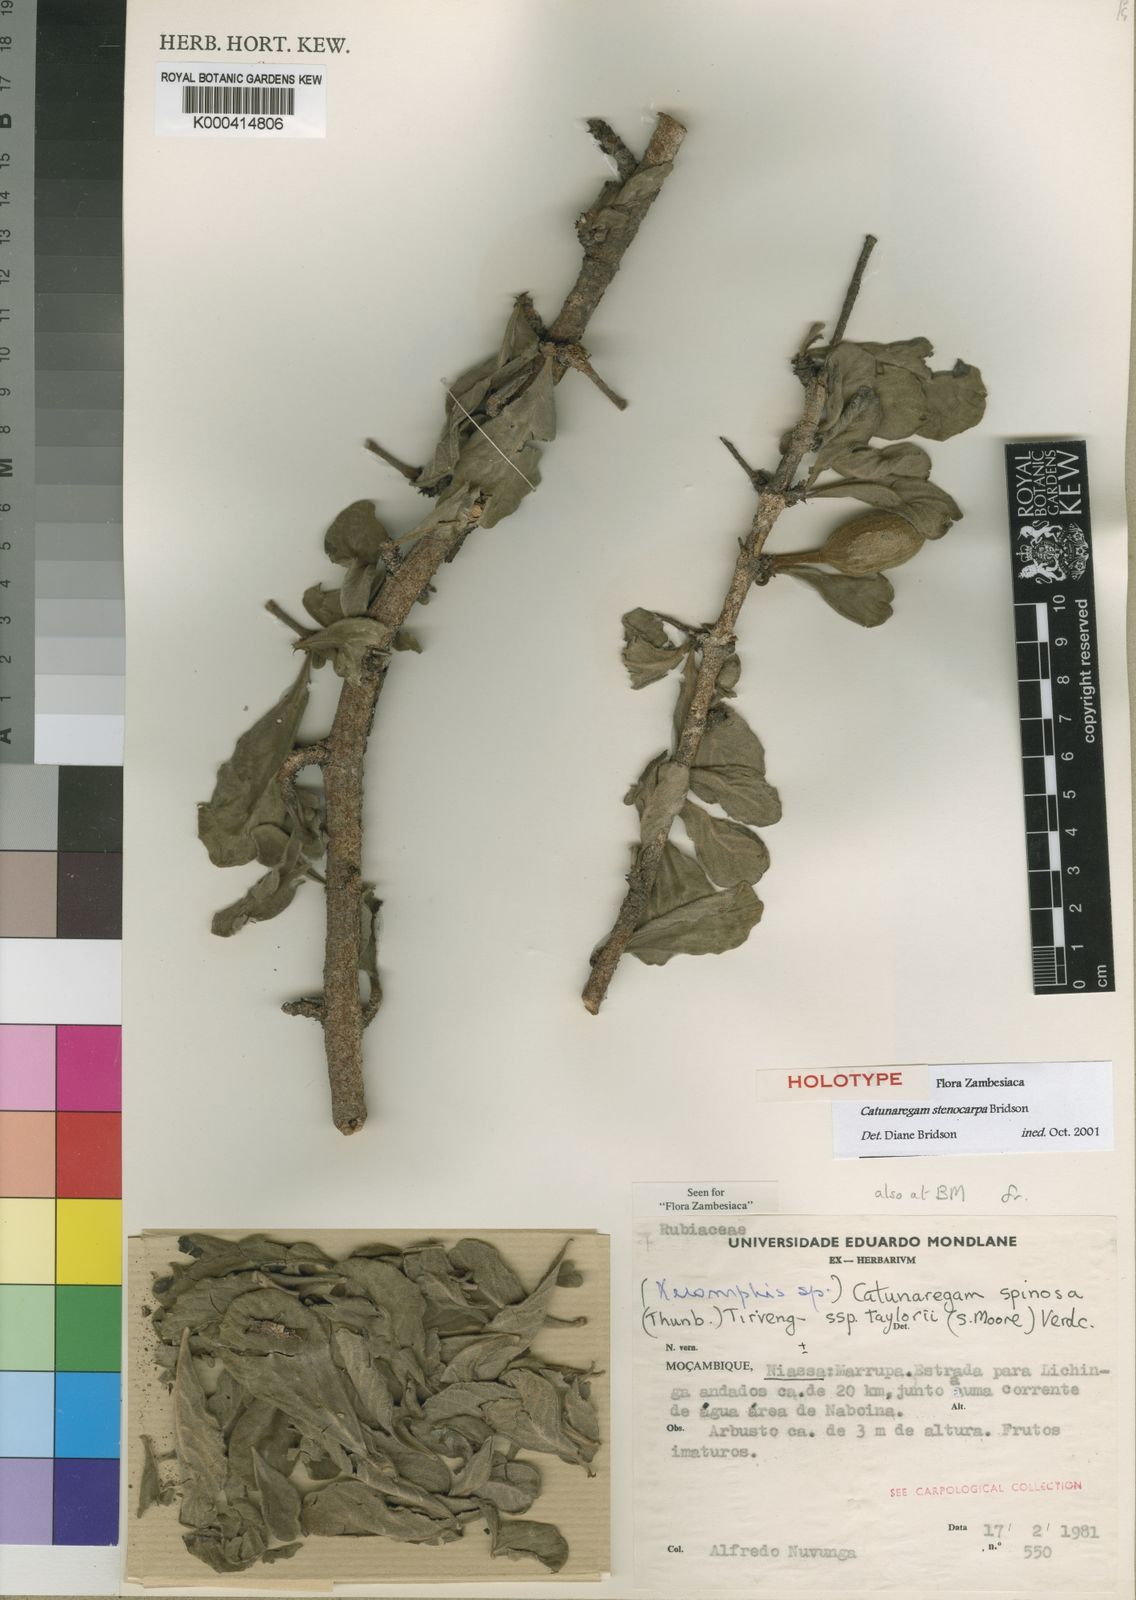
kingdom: Plantae
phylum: Tracheophyta
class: Magnoliopsida
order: Gentianales
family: Rubiaceae
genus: Catunaregam
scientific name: Catunaregam stenocarpa
